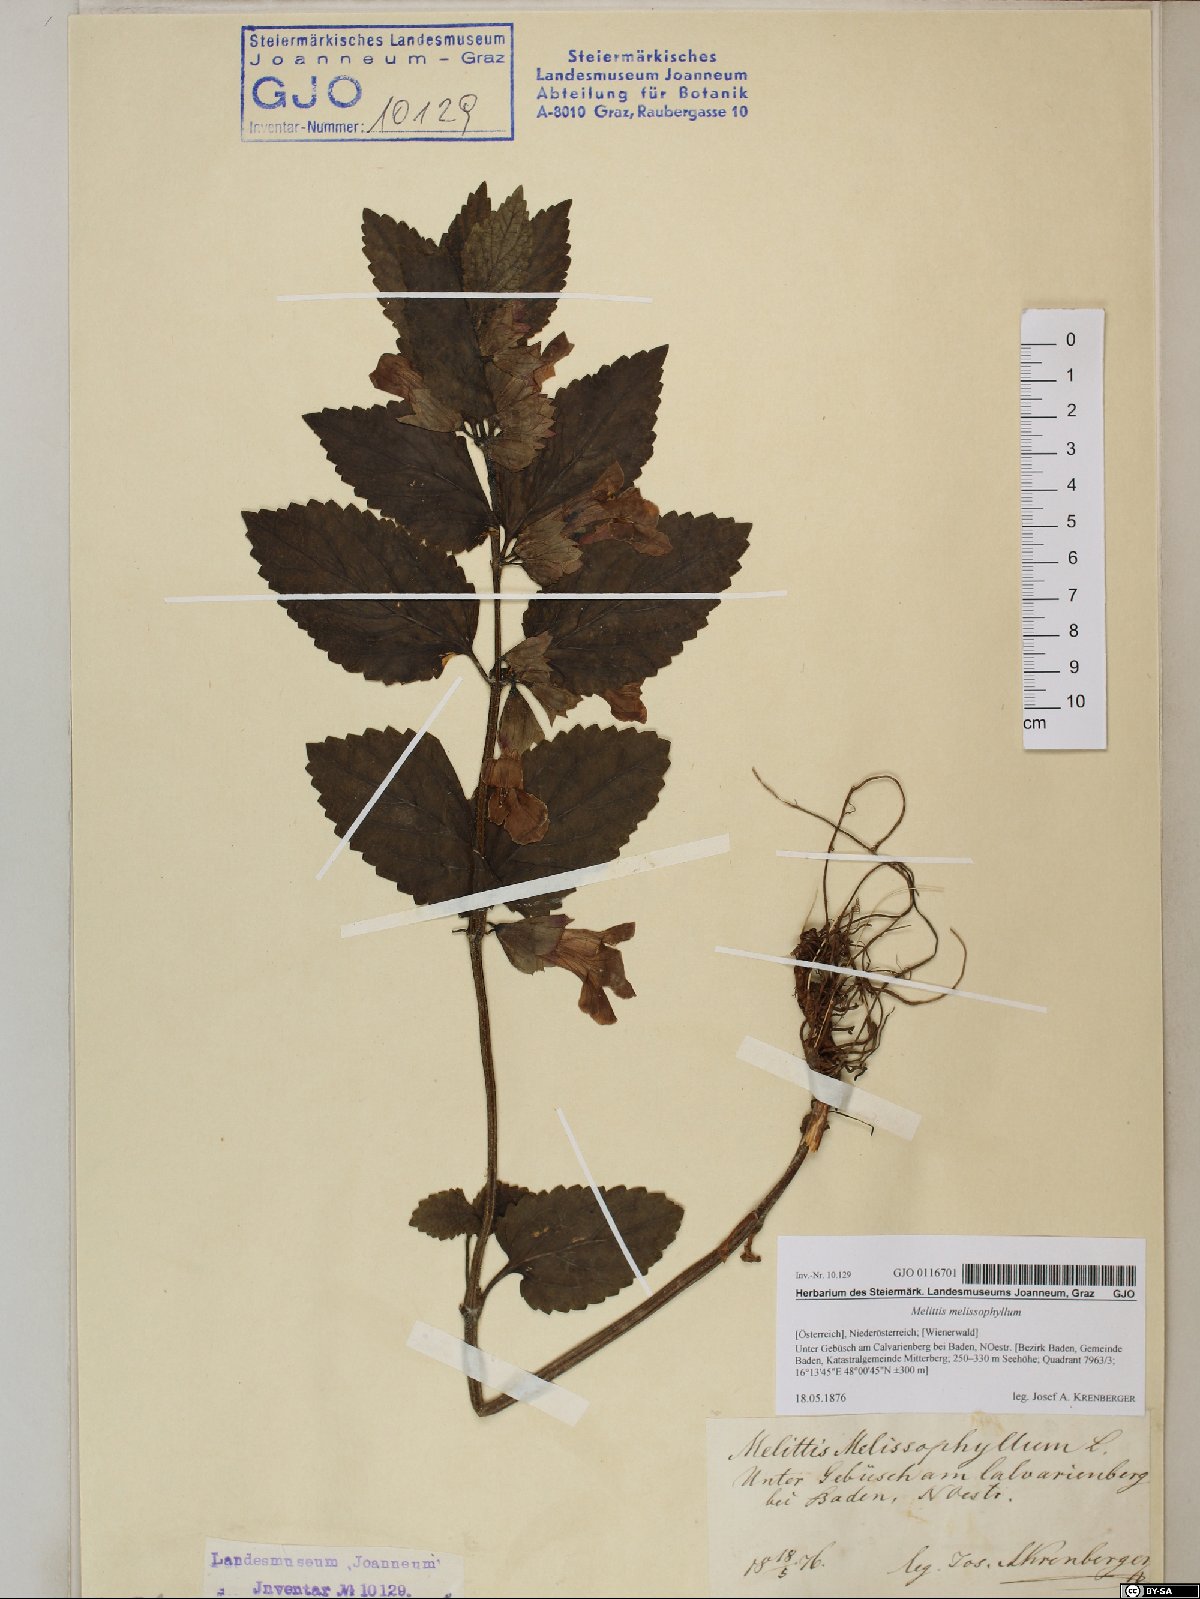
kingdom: Plantae
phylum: Tracheophyta
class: Magnoliopsida
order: Lamiales
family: Lamiaceae
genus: Melittis
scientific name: Melittis melissophyllum
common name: Bastard balm
